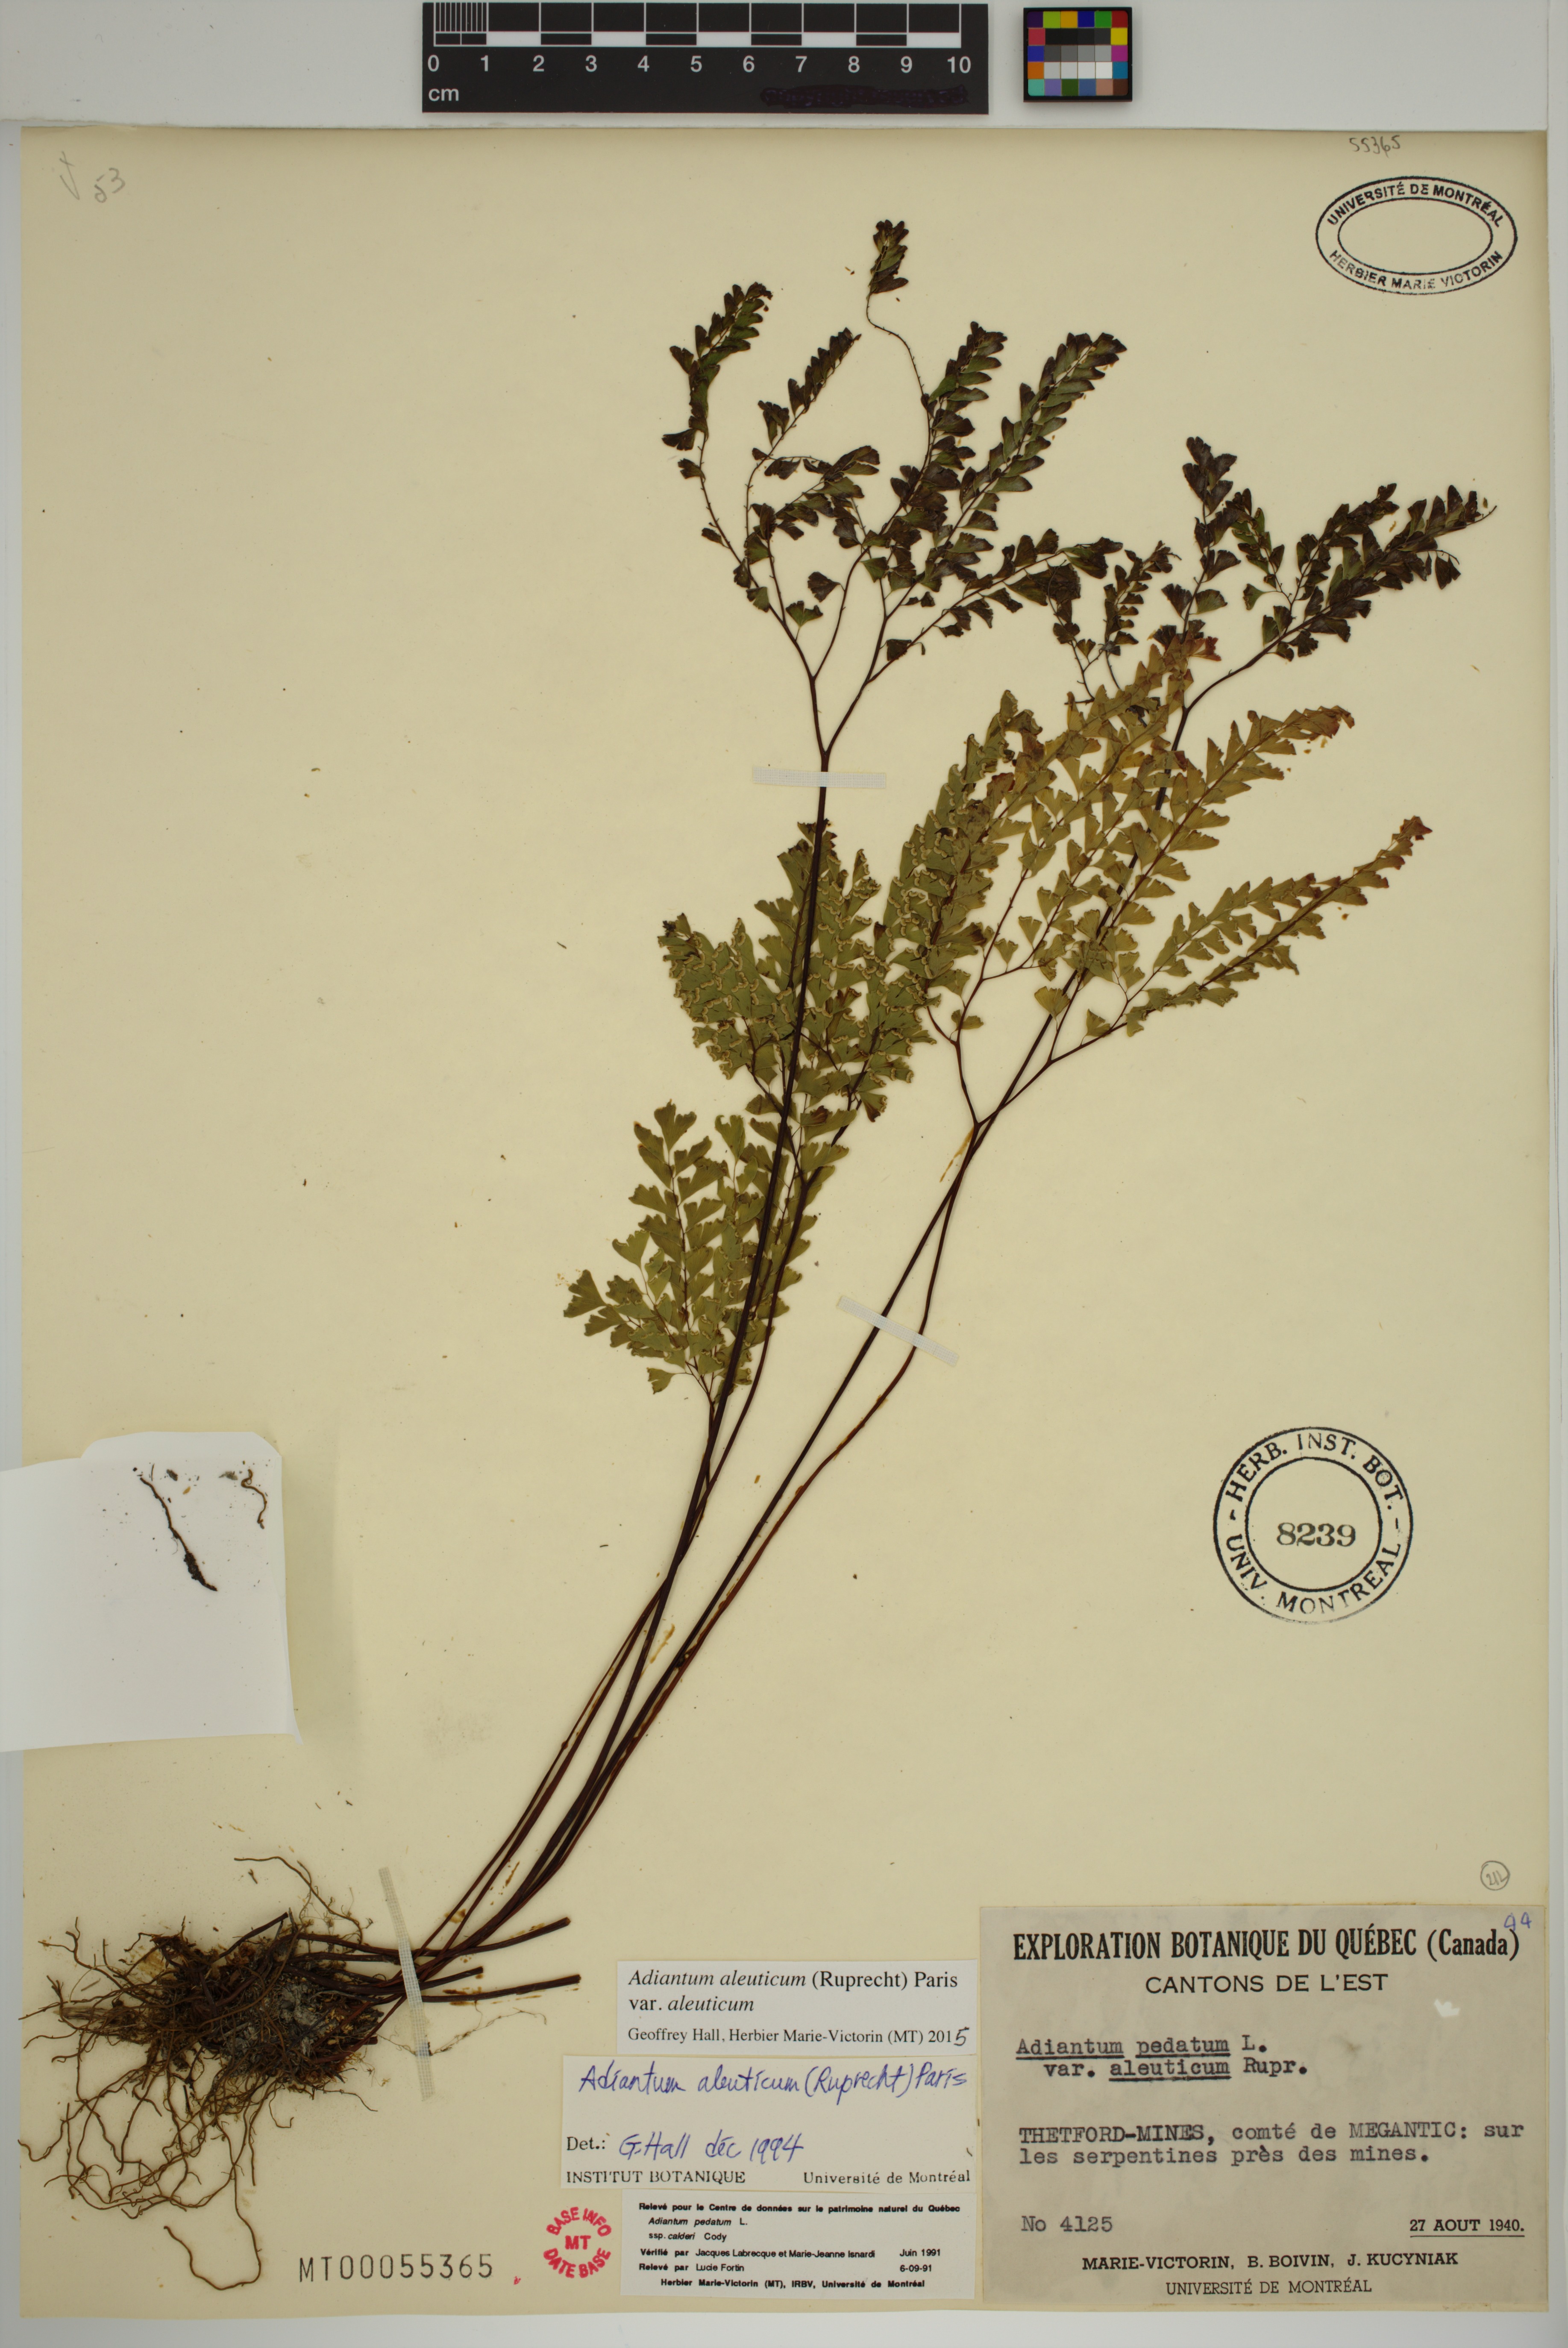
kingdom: Plantae
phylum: Tracheophyta
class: Polypodiopsida
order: Polypodiales
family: Pteridaceae
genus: Adiantum
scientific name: Adiantum aleuticum
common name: Aleutian maidenhair fern
